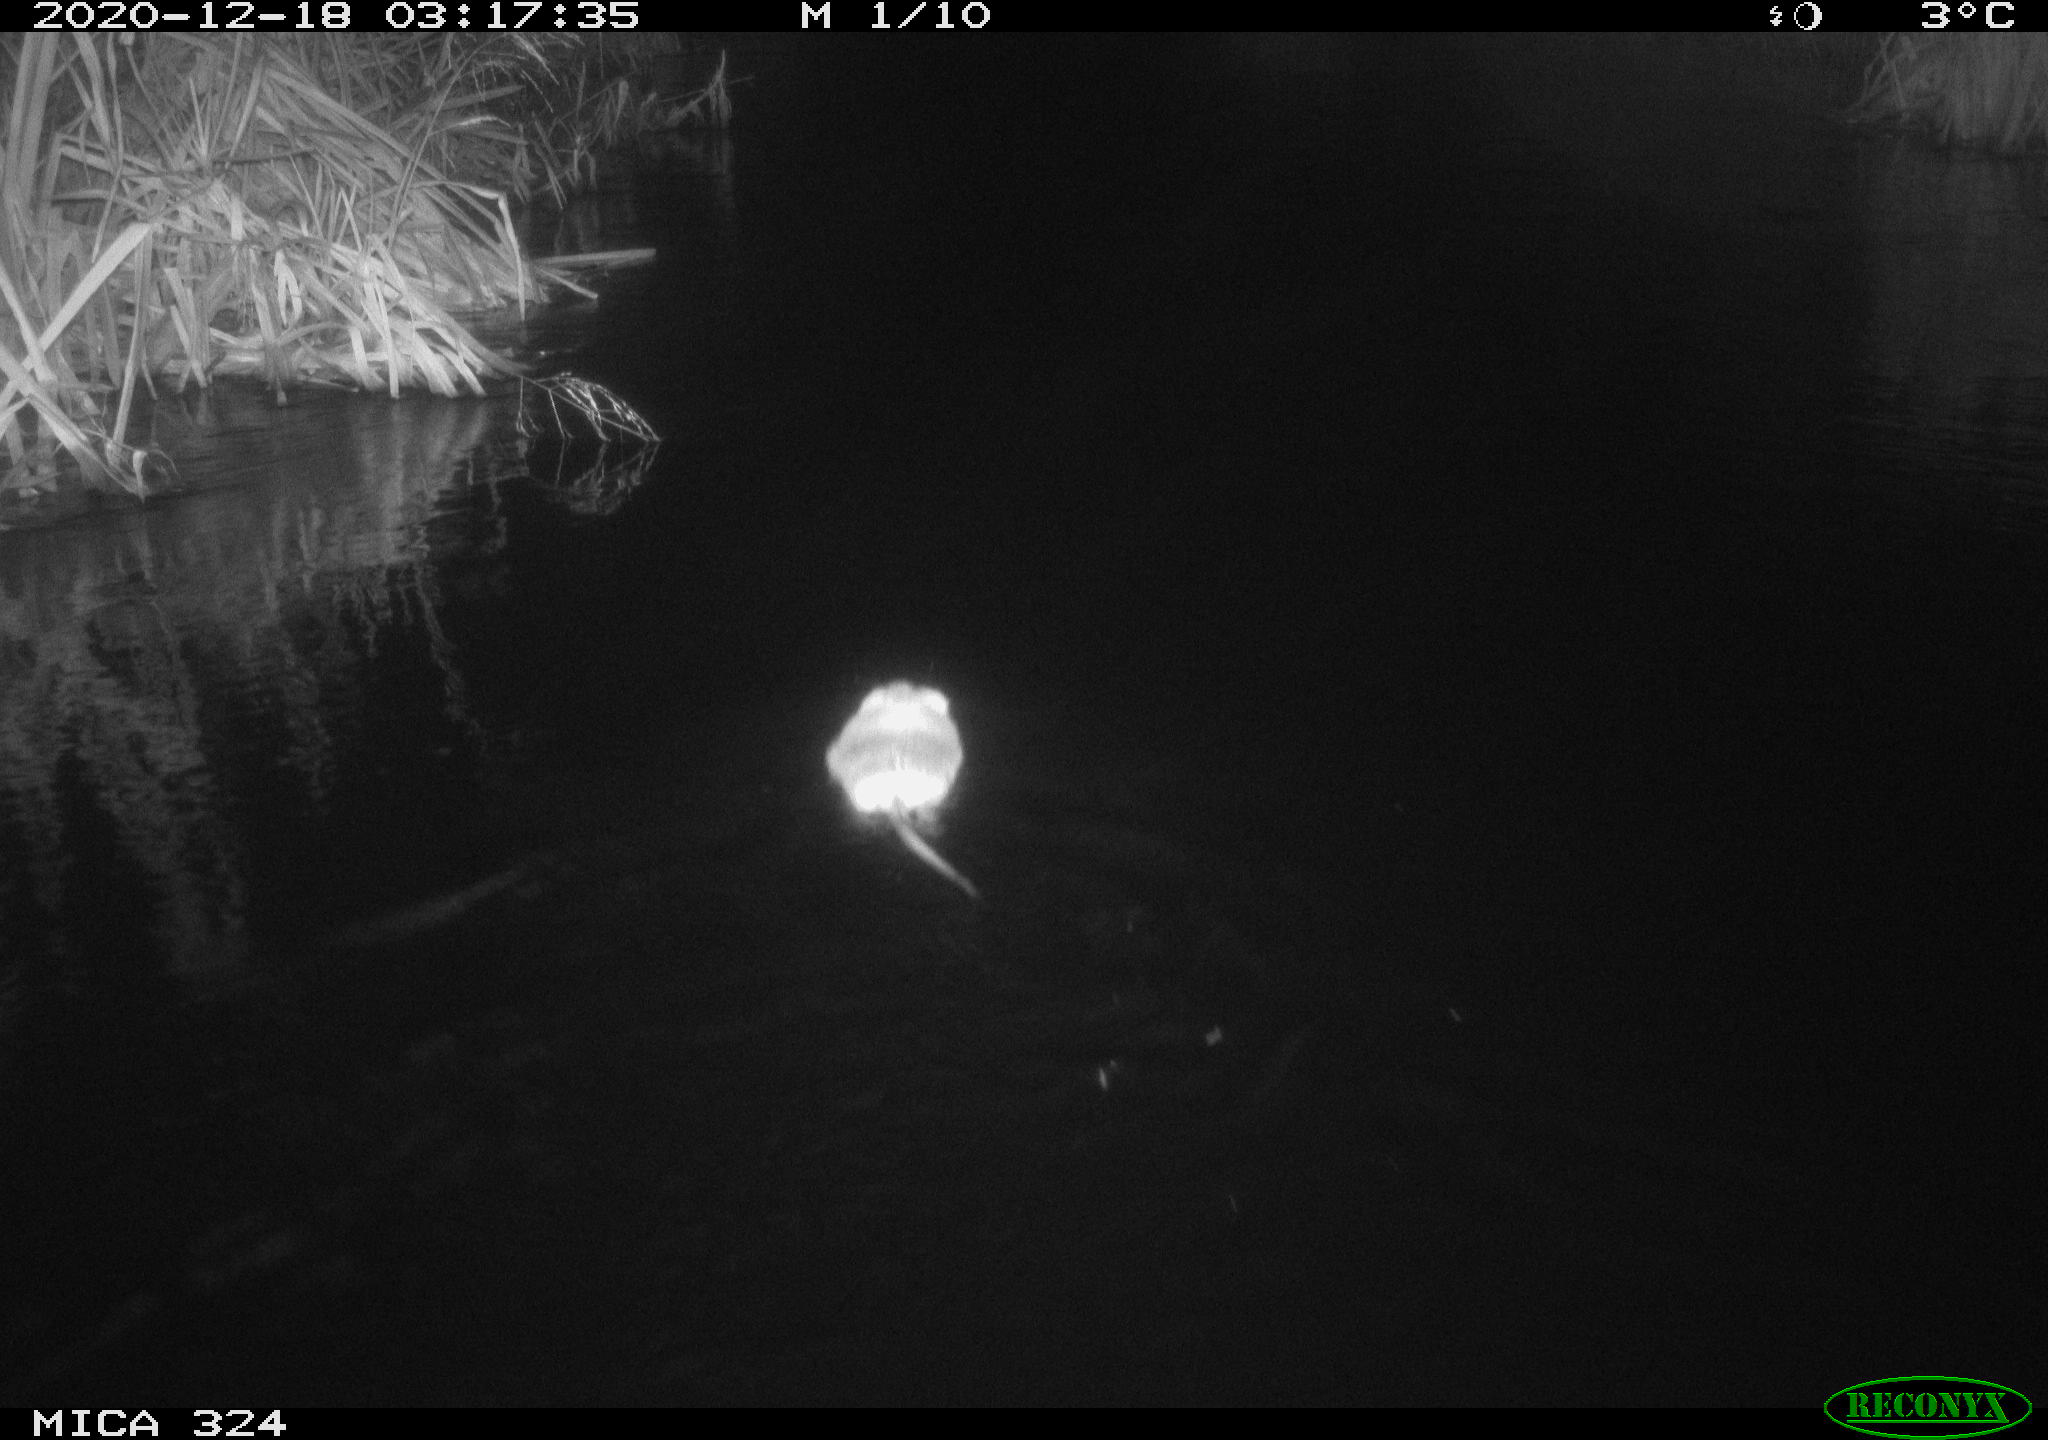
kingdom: Animalia
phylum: Chordata
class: Mammalia
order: Rodentia
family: Cricetidae
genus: Ondatra
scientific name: Ondatra zibethicus
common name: Muskrat
